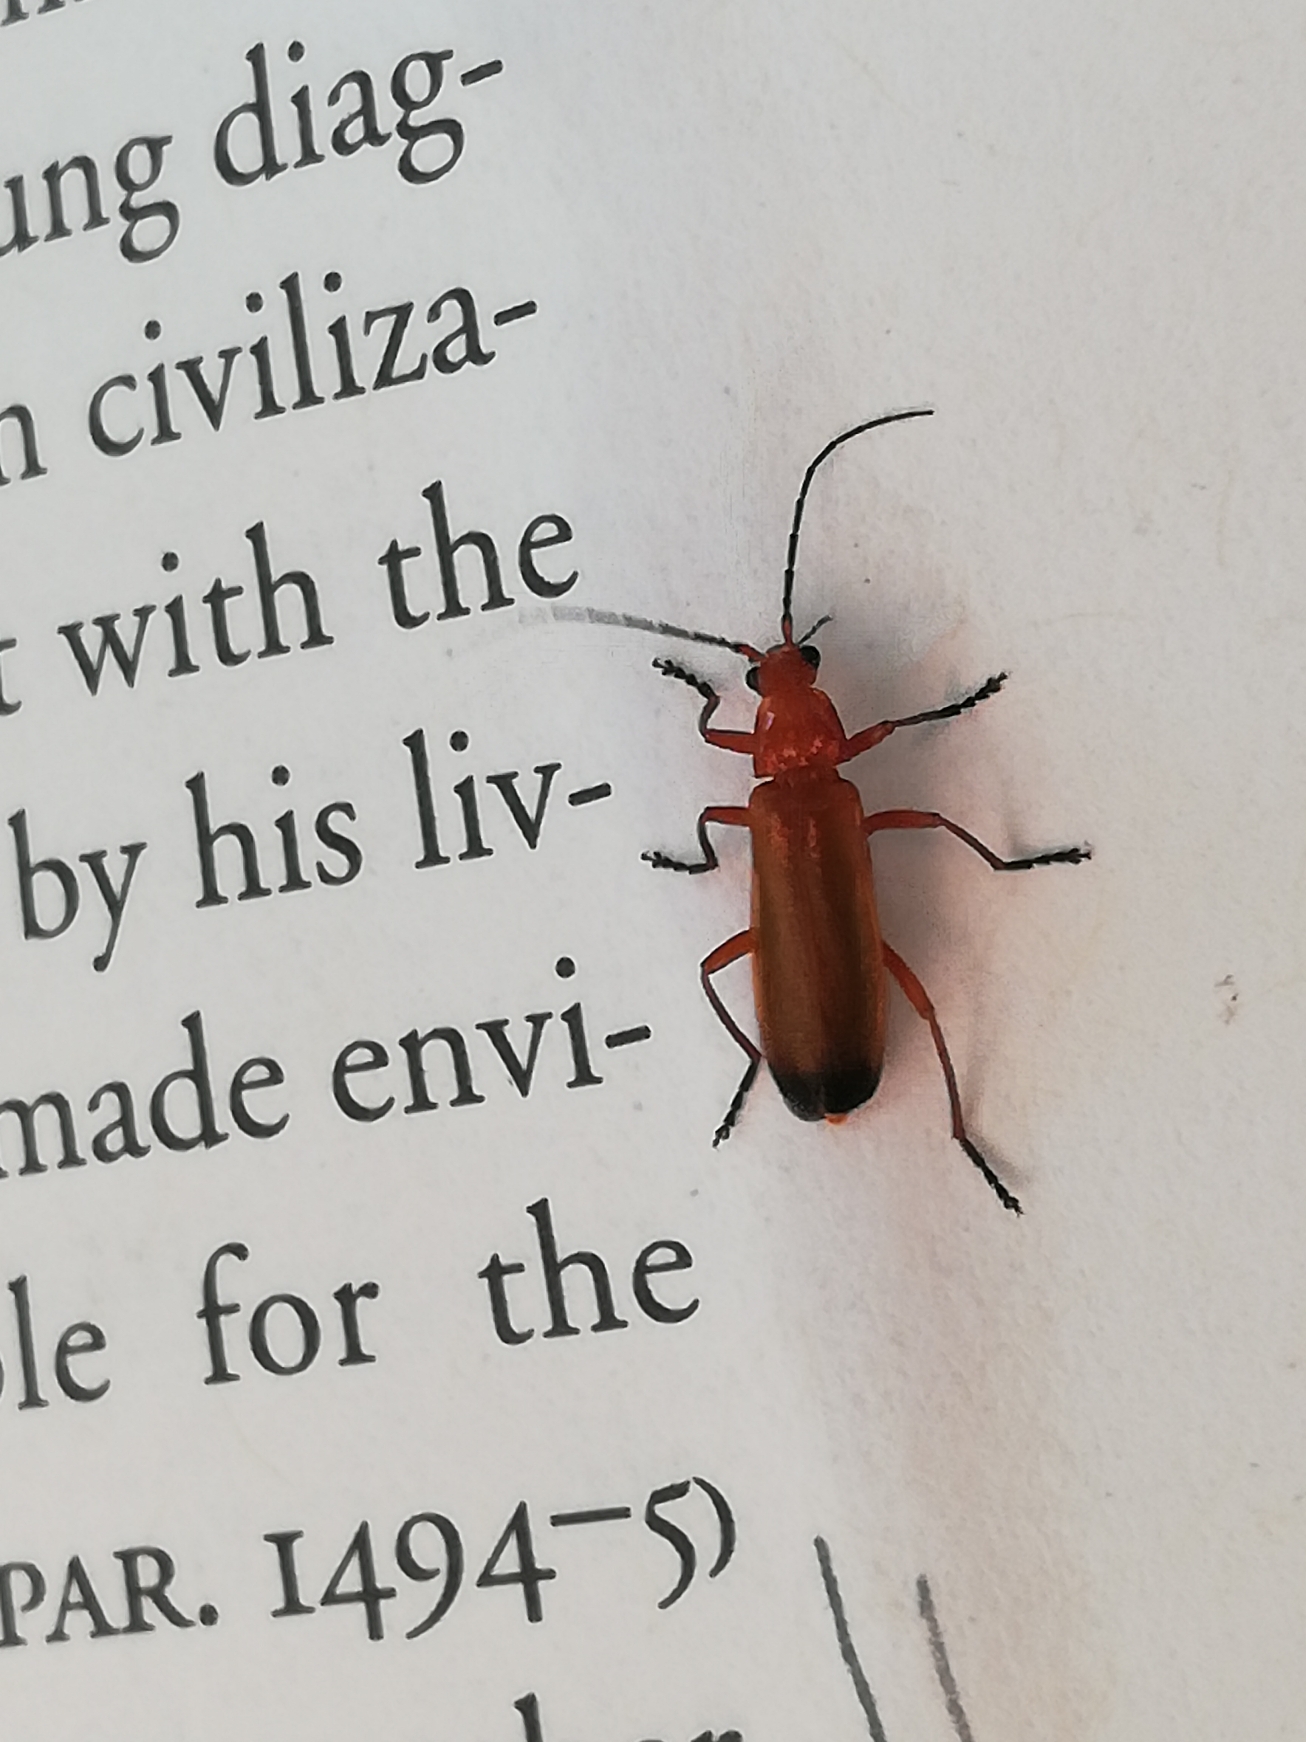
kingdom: Animalia
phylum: Arthropoda
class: Insecta
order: Coleoptera
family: Cantharidae
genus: Rhagonycha
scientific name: Rhagonycha fulva
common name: Præstebille
